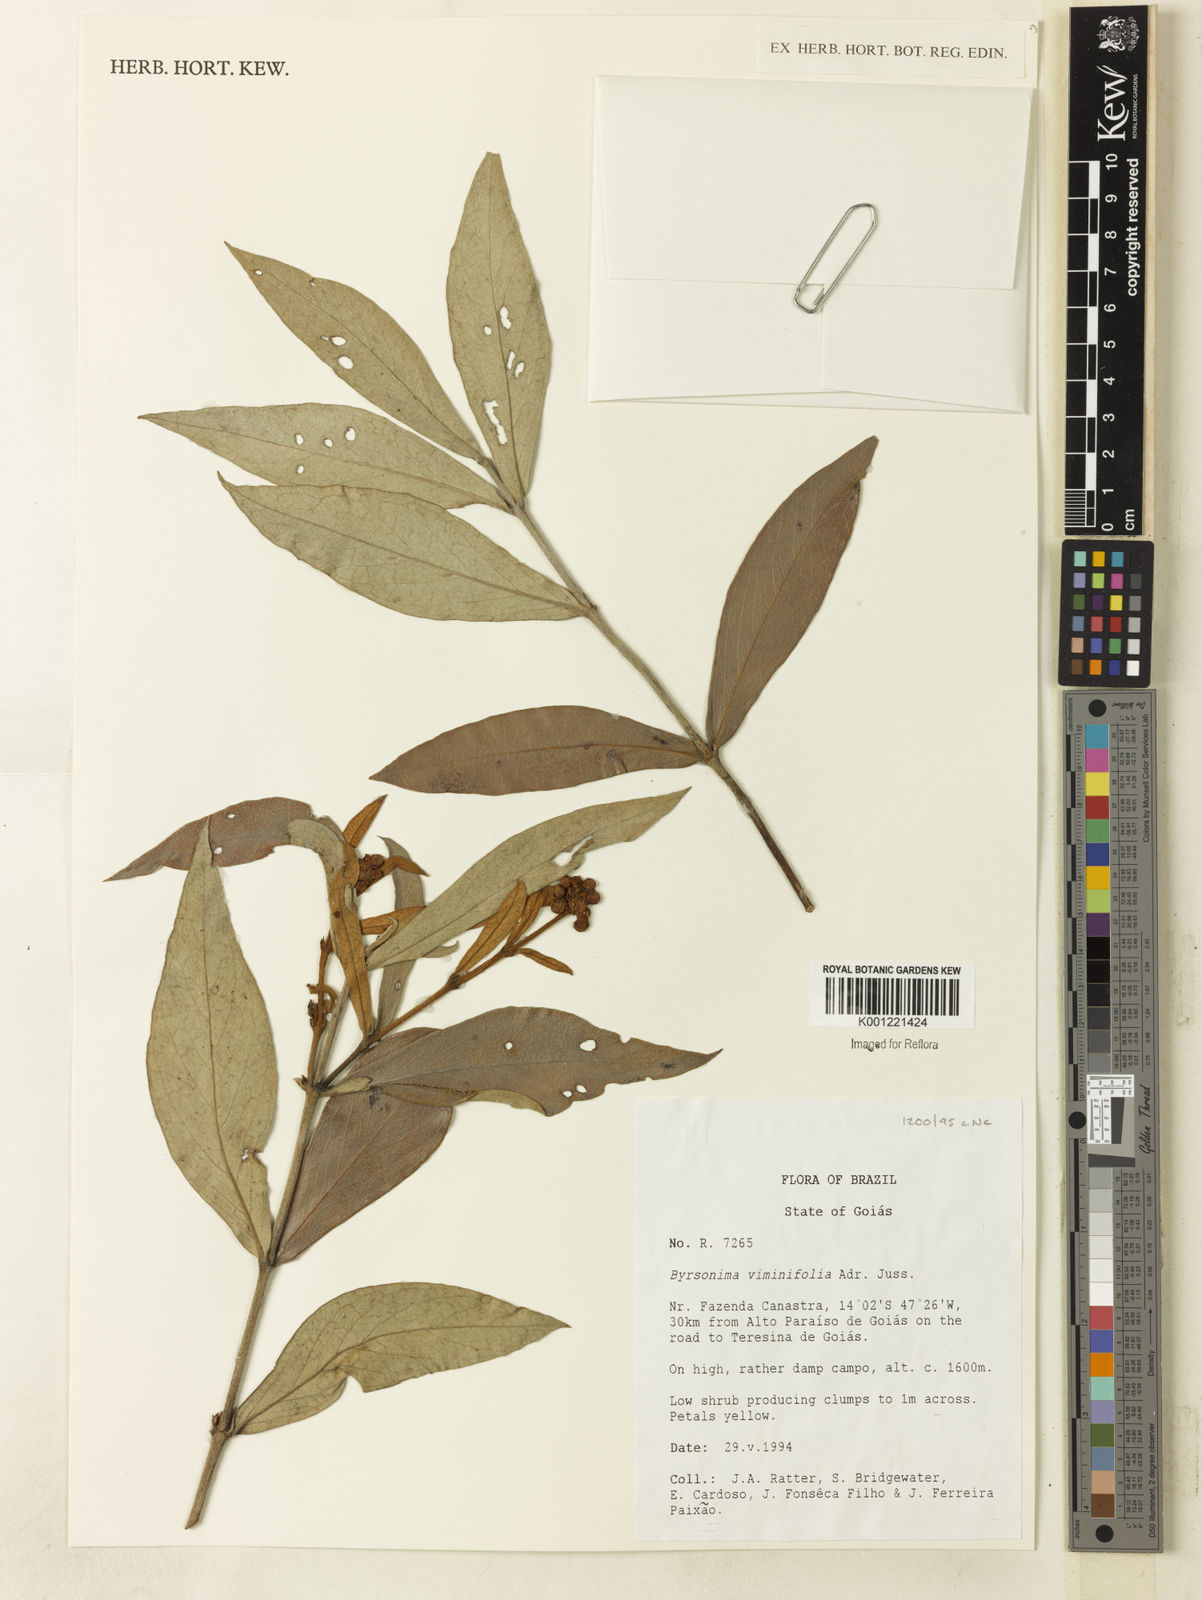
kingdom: Plantae
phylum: Tracheophyta
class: Magnoliopsida
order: Malpighiales
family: Malpighiaceae
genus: Byrsonima
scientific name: Byrsonima viminifolia
